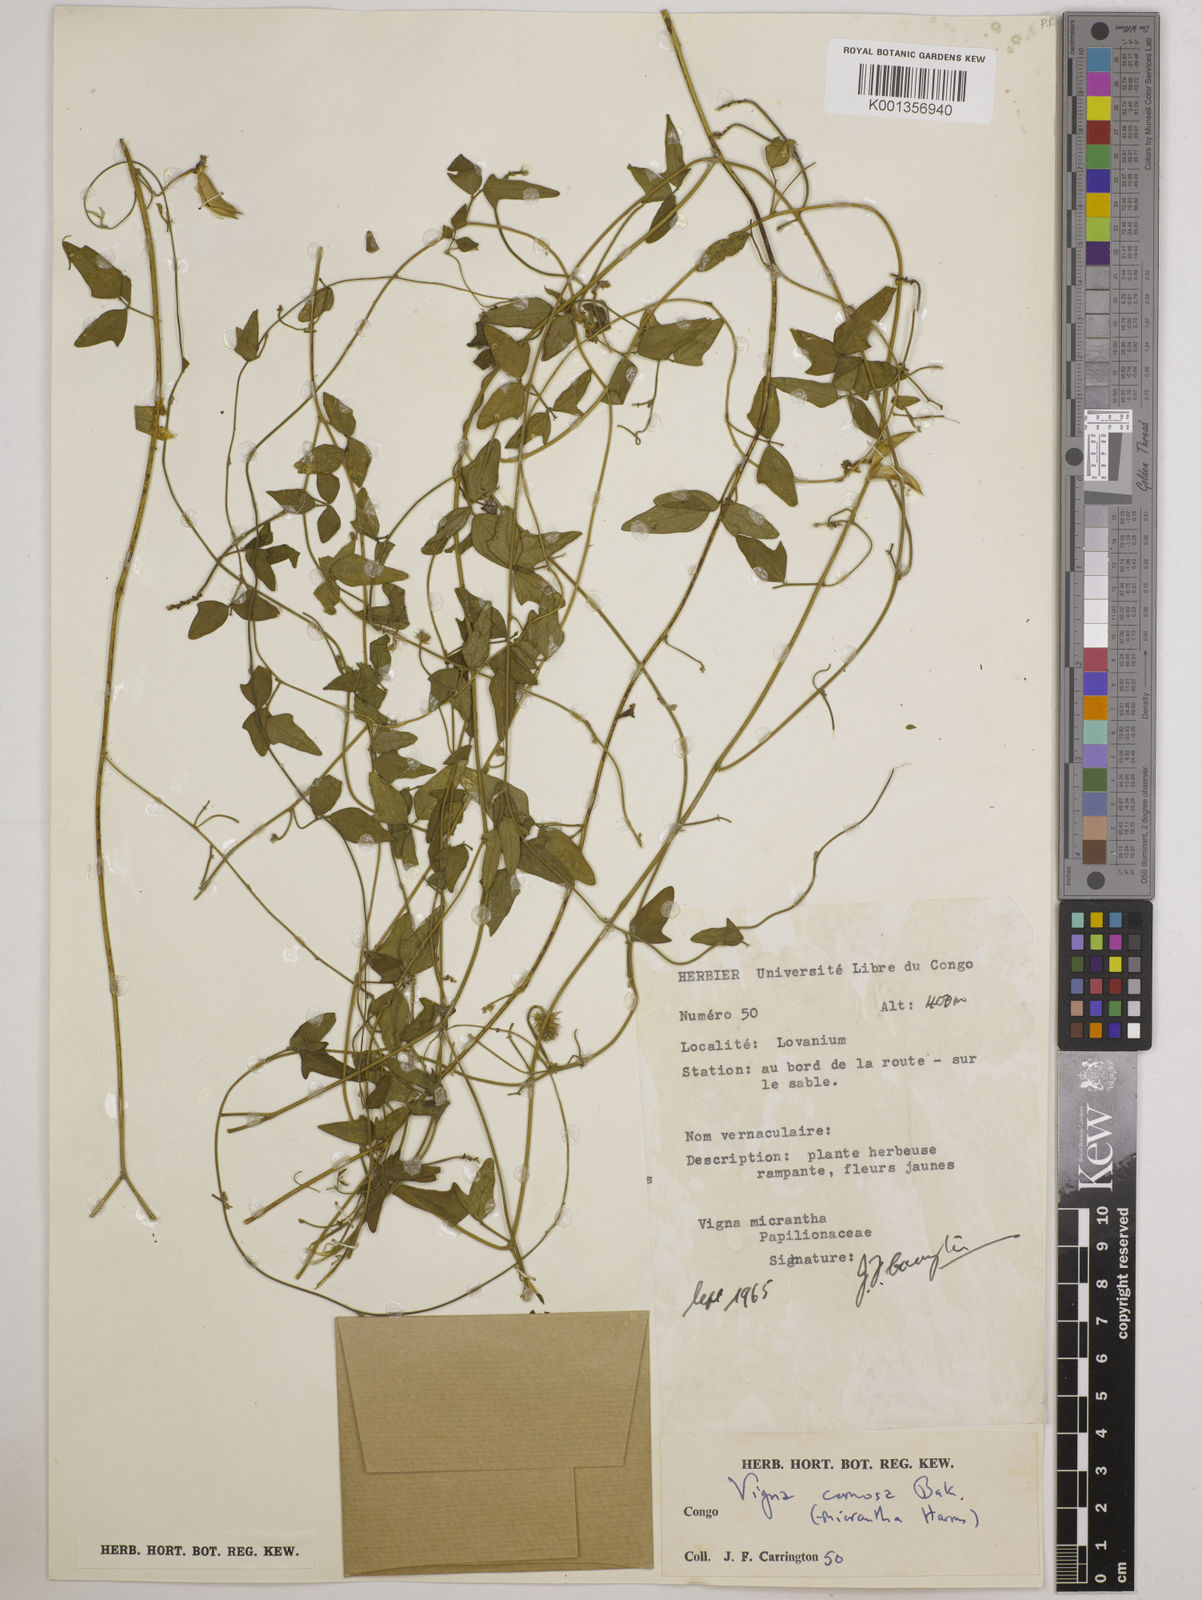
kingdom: Plantae
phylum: Tracheophyta
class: Magnoliopsida
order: Fabales
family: Fabaceae
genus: Vigna
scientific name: Vigna comosa
